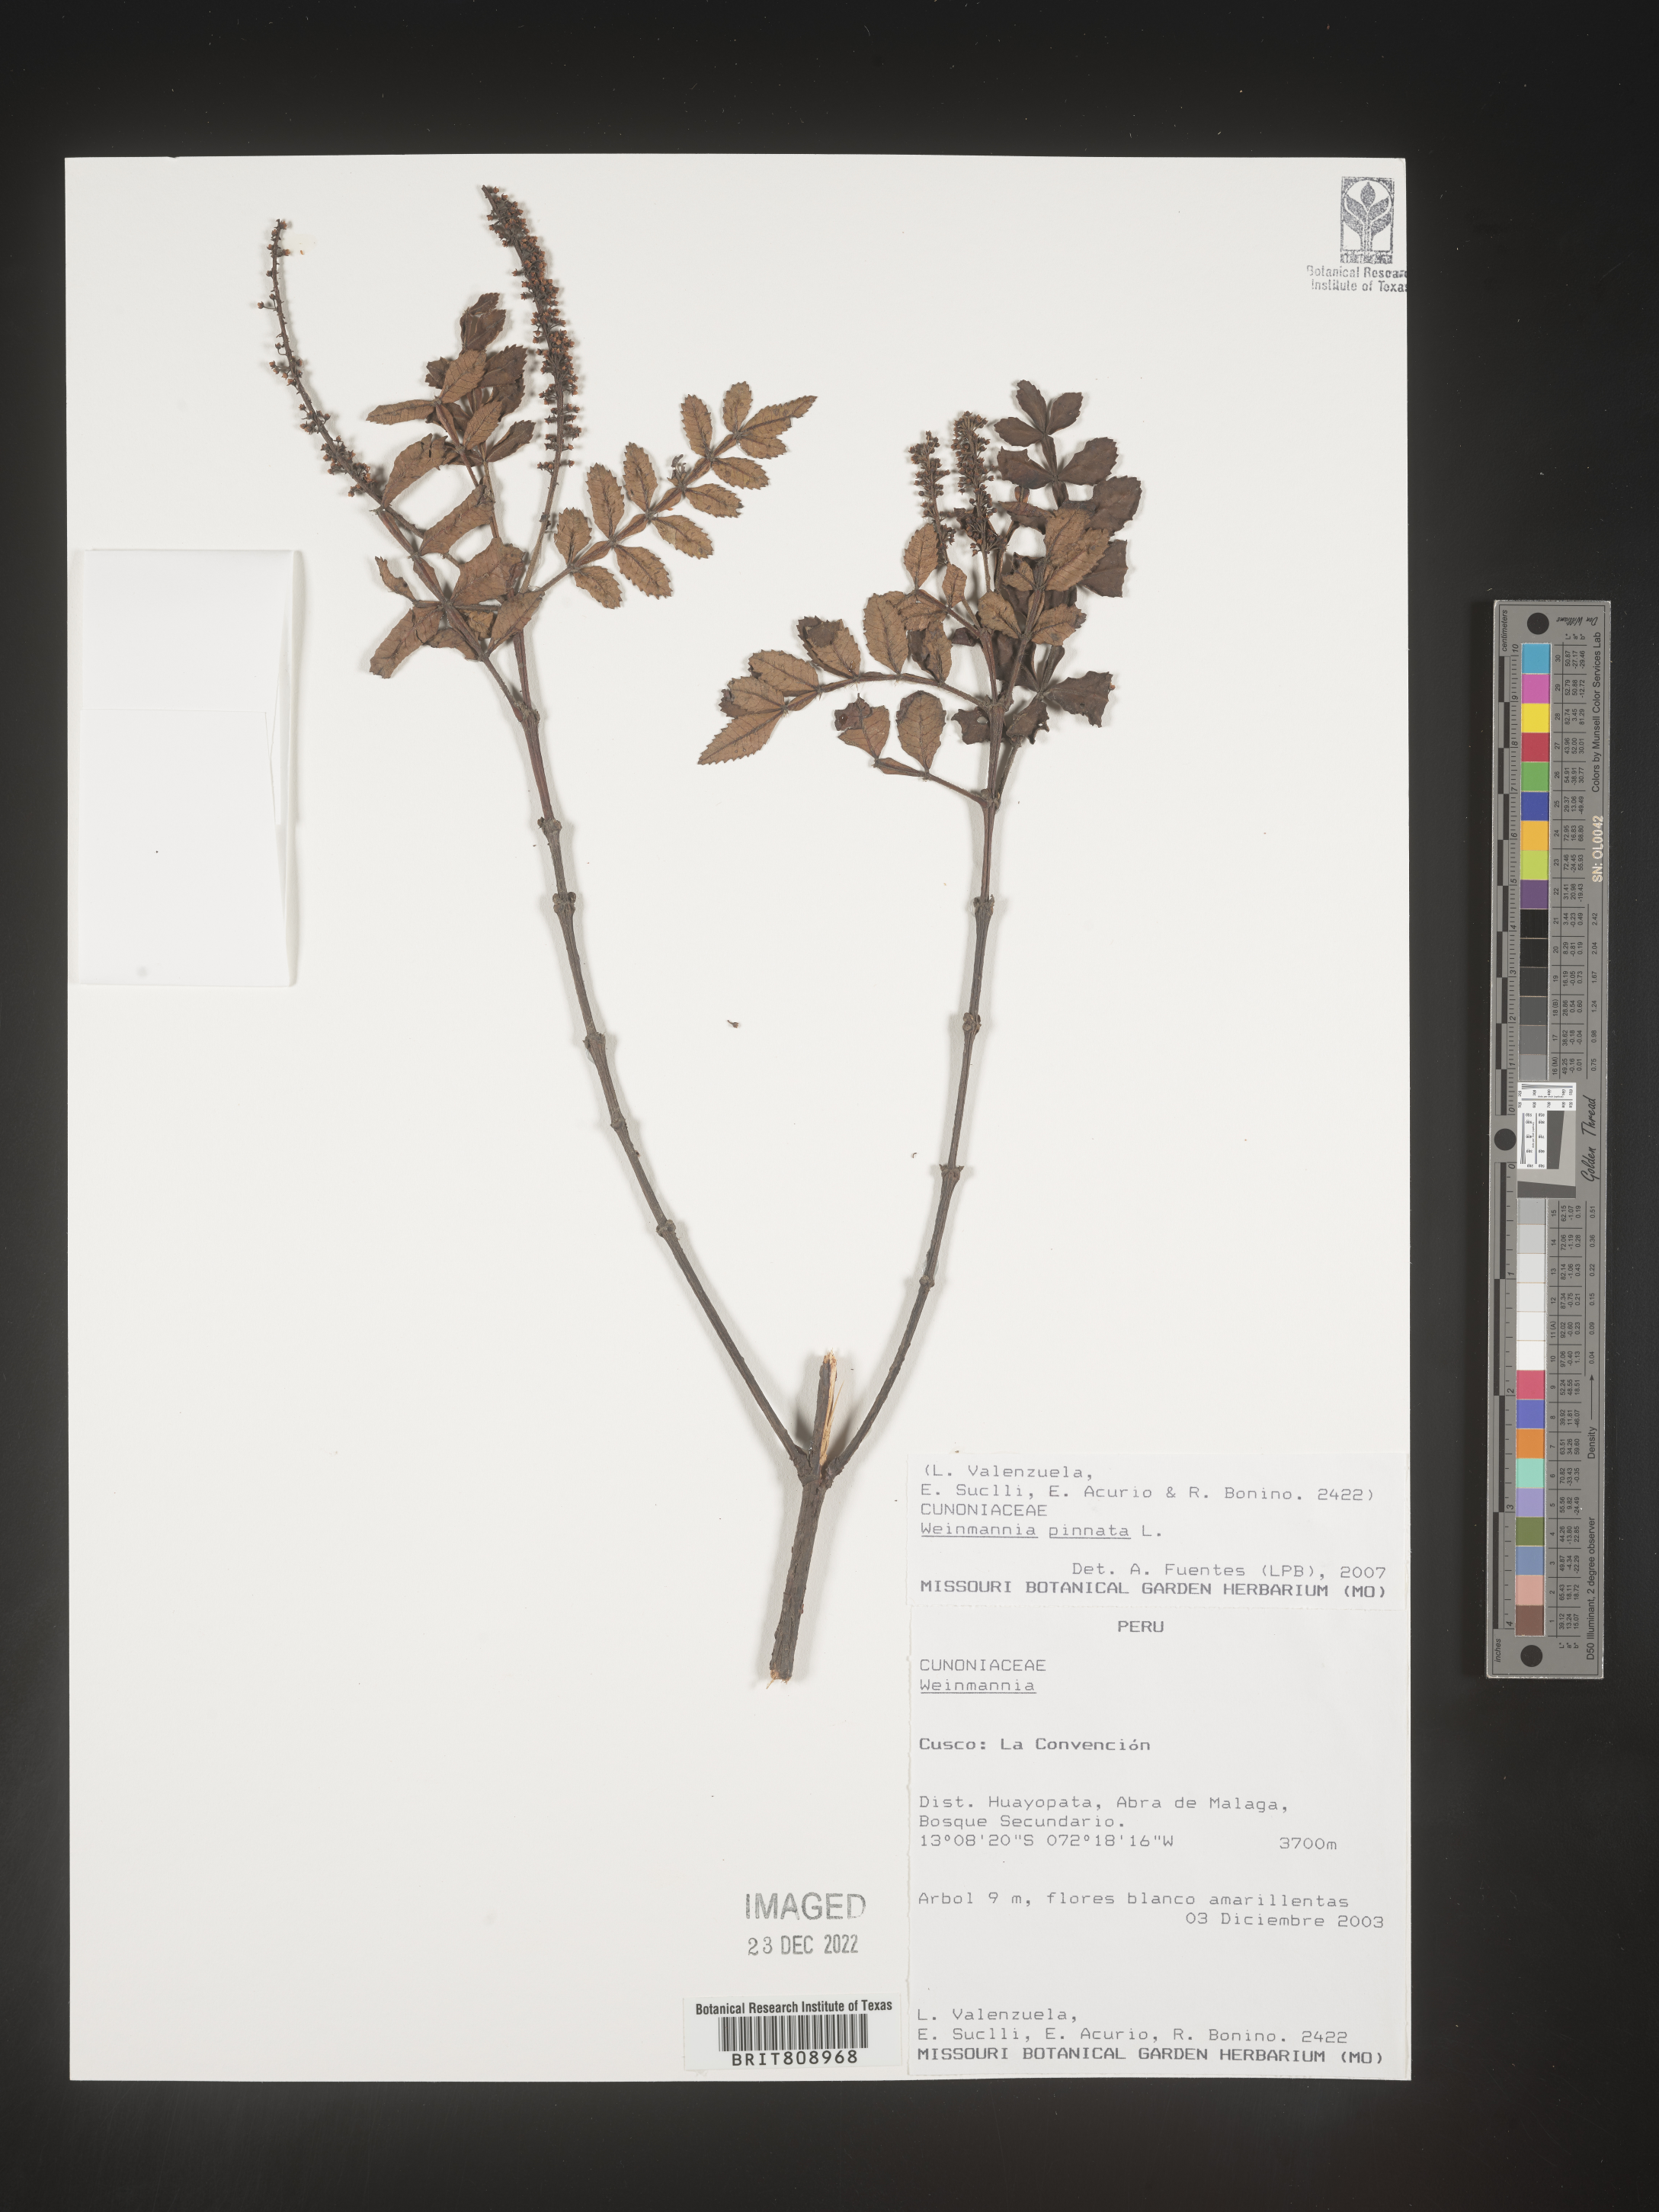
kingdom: Plantae
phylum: Tracheophyta
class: Magnoliopsida
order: Oxalidales
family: Cunoniaceae
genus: Weinmannia
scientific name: Weinmannia
